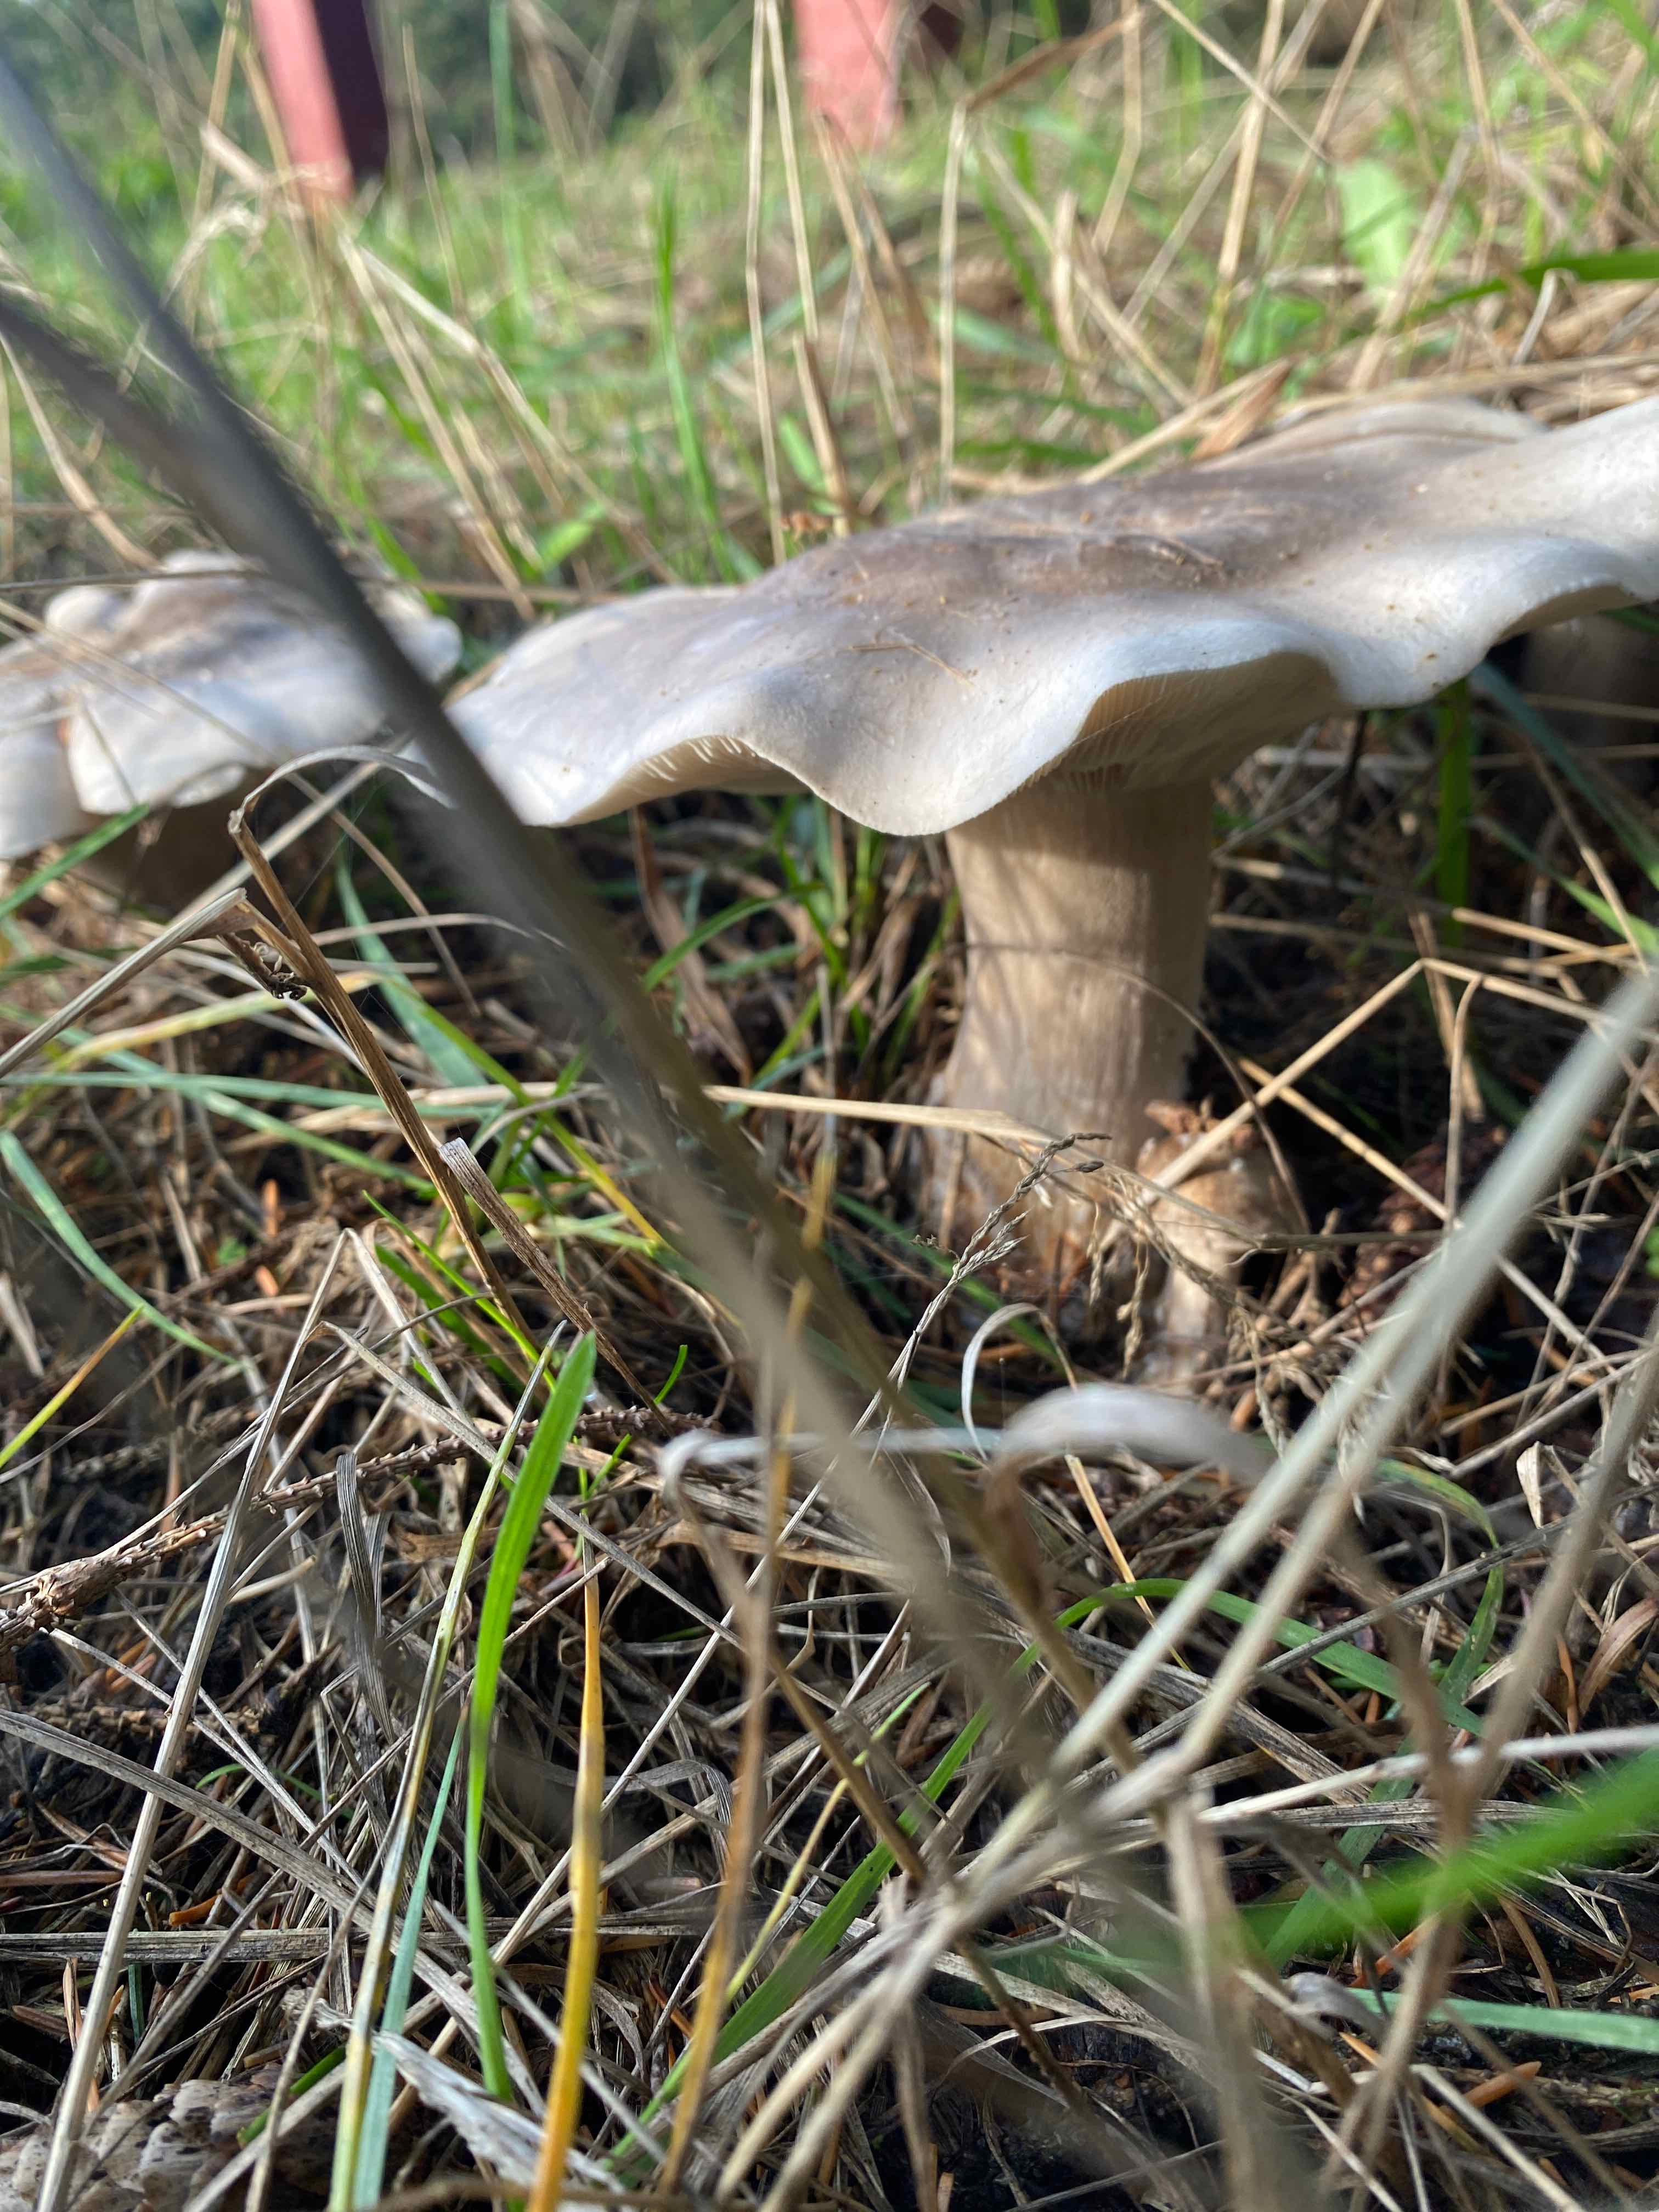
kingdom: Fungi
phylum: Basidiomycota
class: Agaricomycetes
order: Agaricales
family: Tricholomataceae
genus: Clitocybe
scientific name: Clitocybe nebularis
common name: tåge-tragthat
